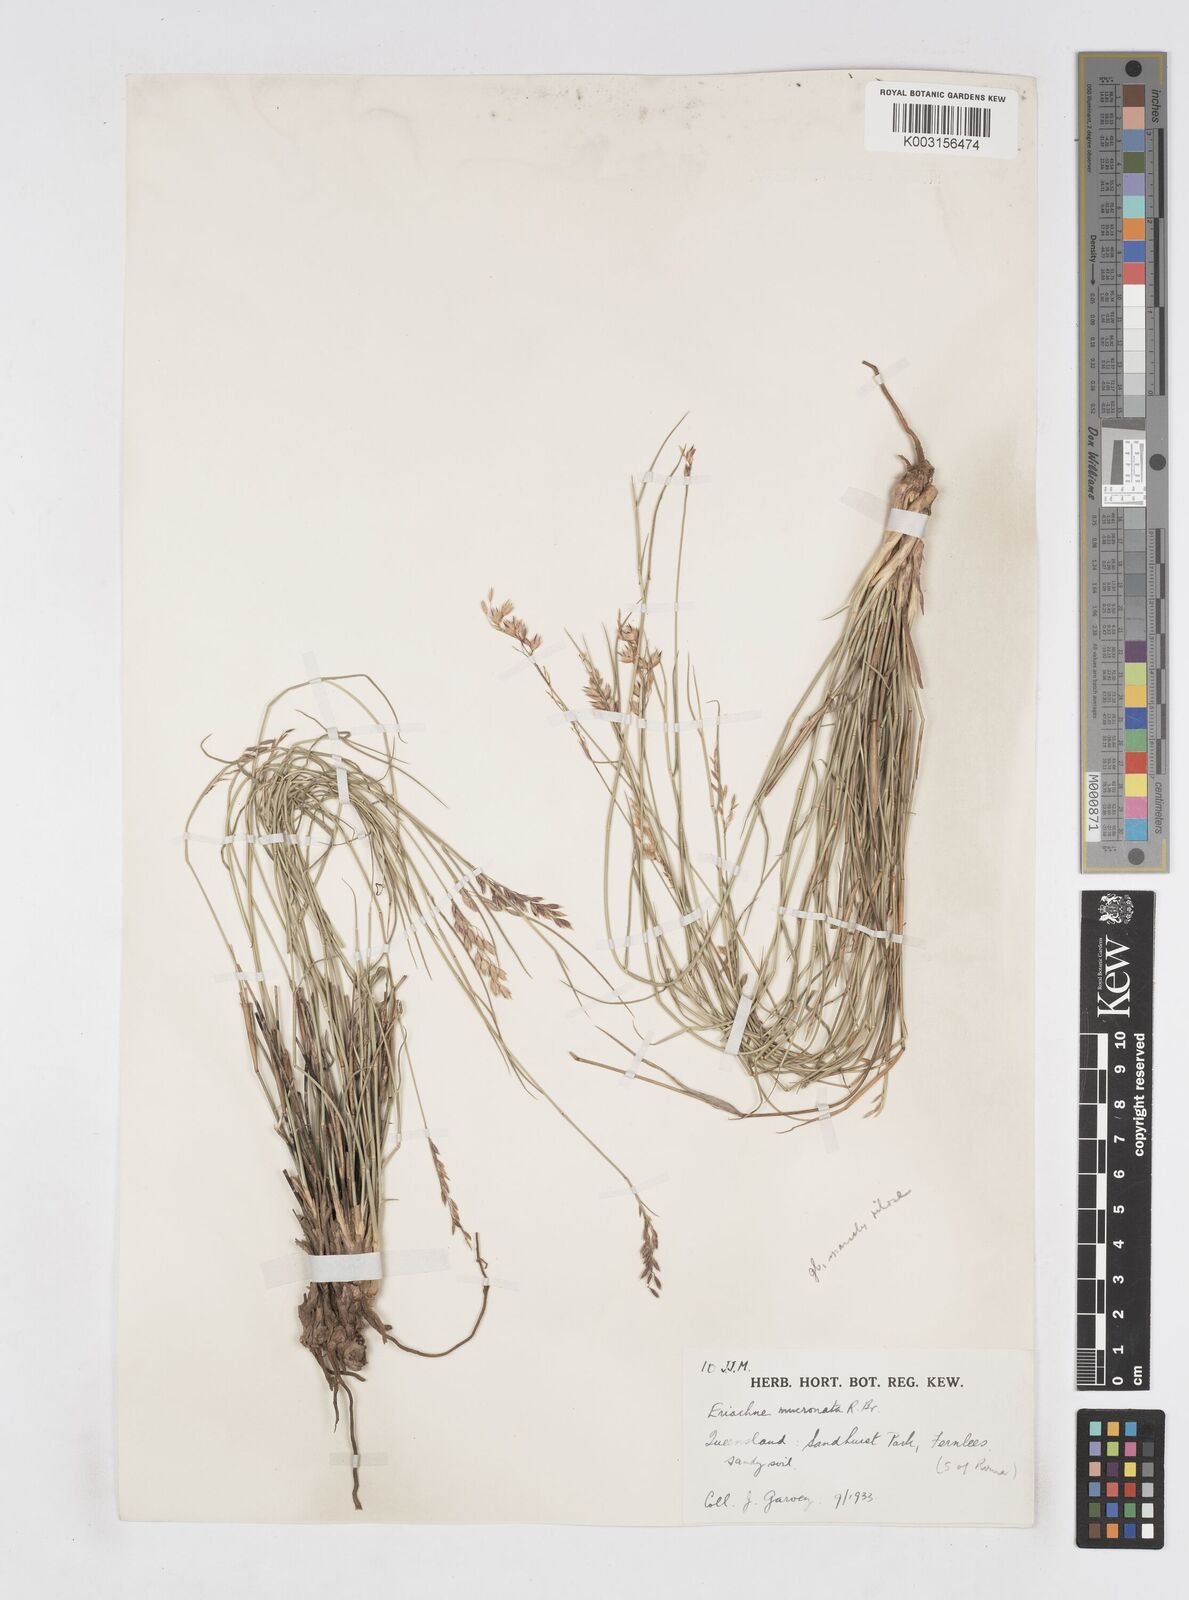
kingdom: Plantae
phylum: Tracheophyta
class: Liliopsida
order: Poales
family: Poaceae
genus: Eriachne
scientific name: Eriachne mucronata
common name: Mountain wanderrie grass
